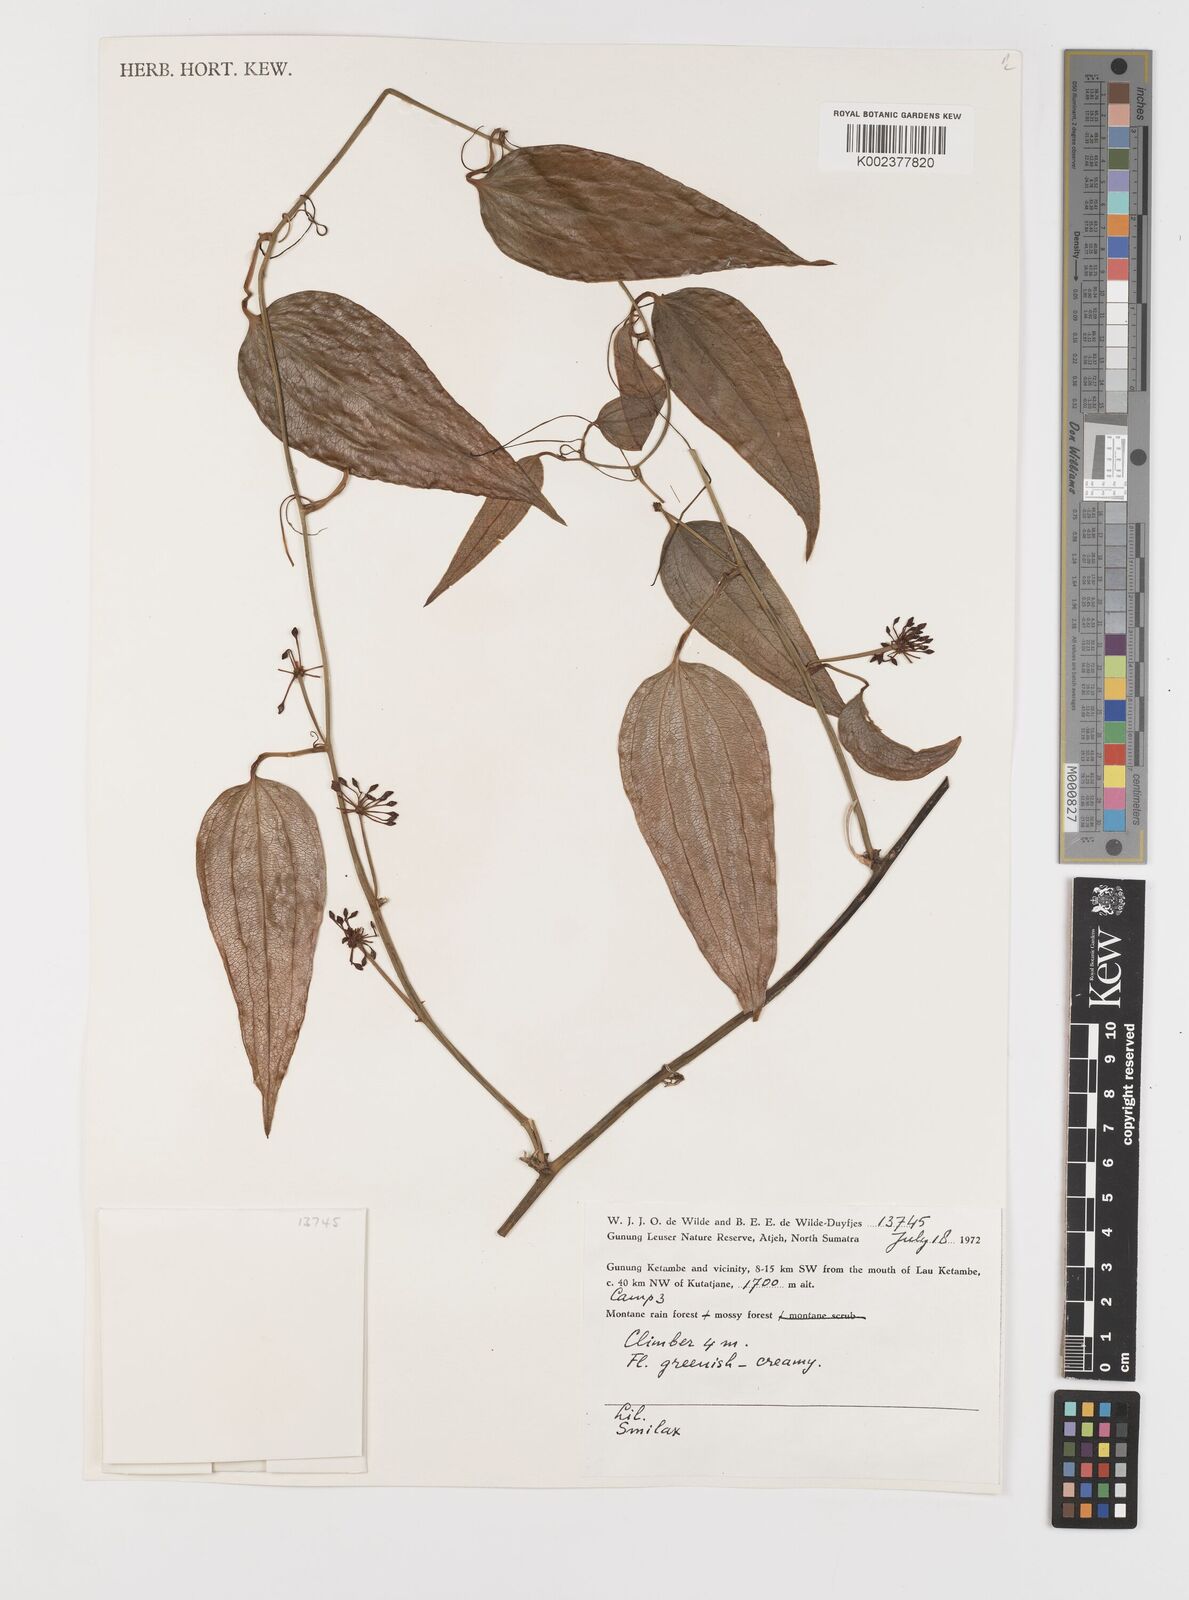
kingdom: Plantae
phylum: Tracheophyta
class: Liliopsida
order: Liliales
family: Smilacaceae
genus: Smilax
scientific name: Smilax
